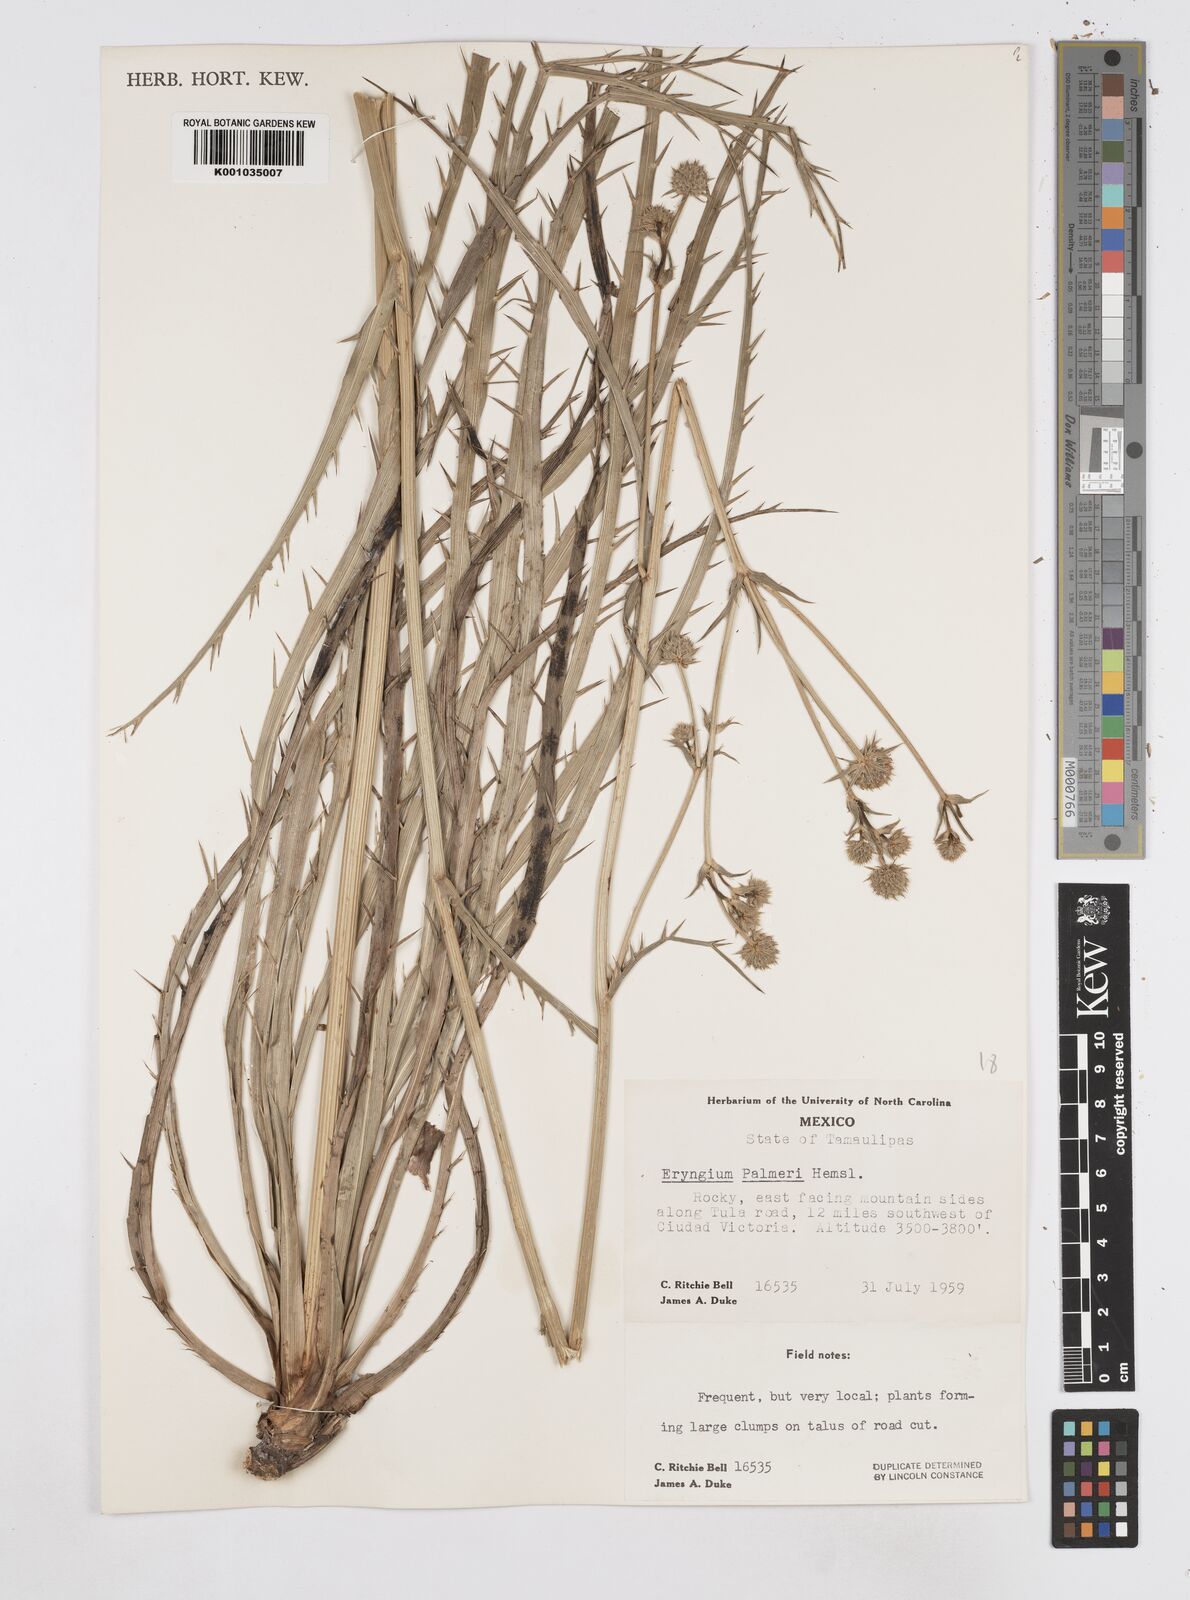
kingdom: Plantae
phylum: Tracheophyta
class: Magnoliopsida
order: Apiales
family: Apiaceae
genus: Eryngium
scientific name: Eryngium palmeri
